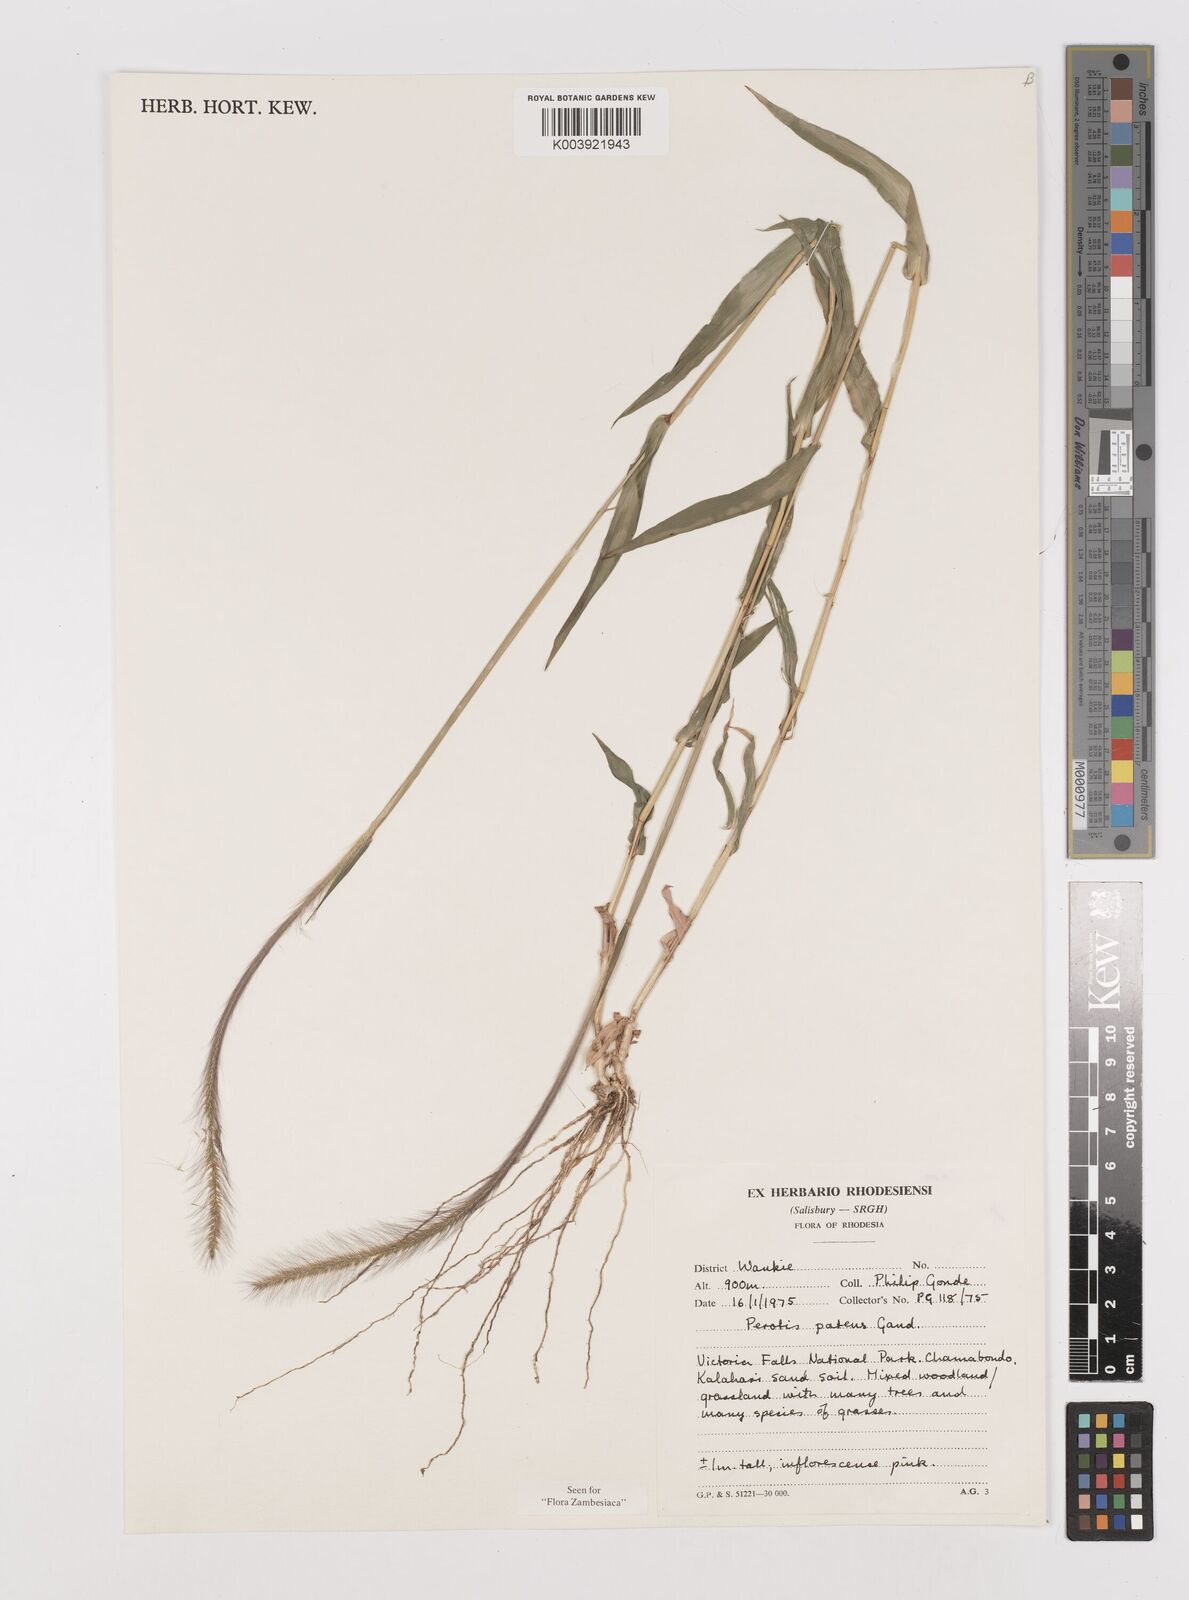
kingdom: Plantae
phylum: Tracheophyta
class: Liliopsida
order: Poales
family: Poaceae
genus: Perotis
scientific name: Perotis patens
